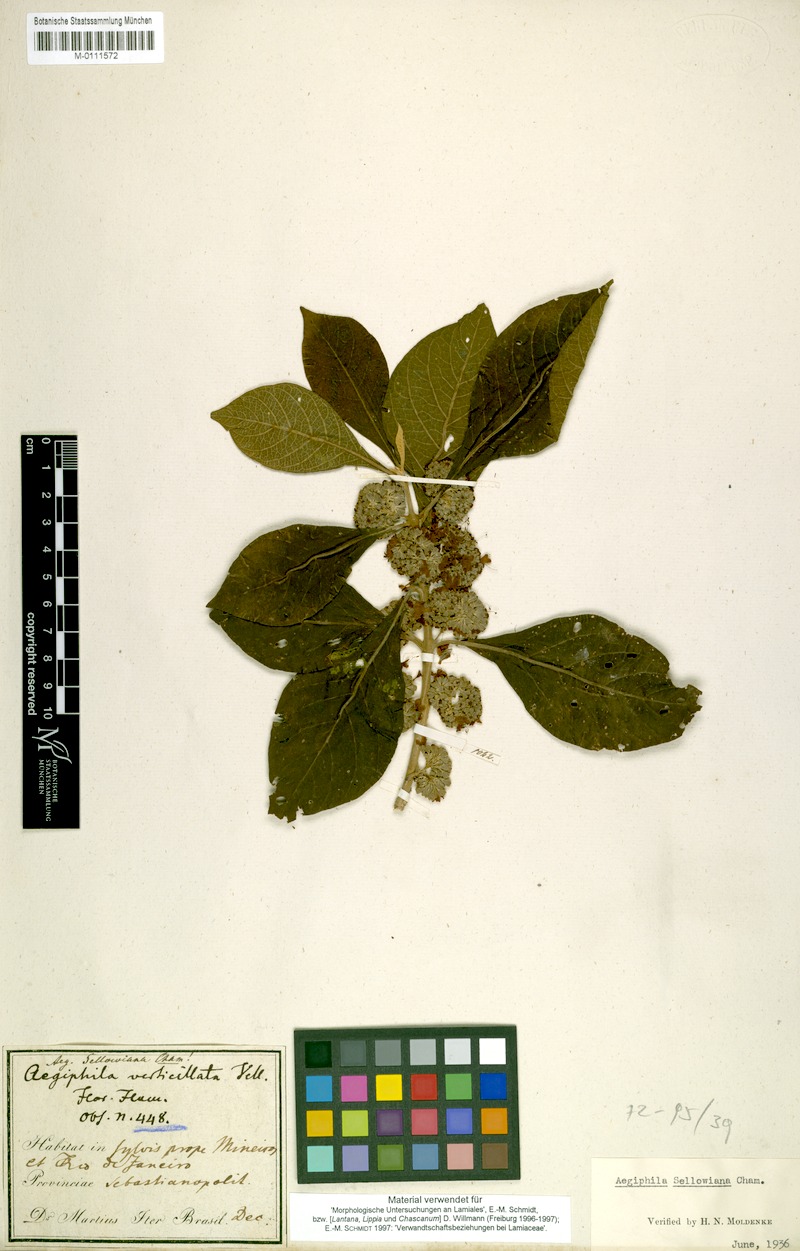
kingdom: Plantae
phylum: Tracheophyta
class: Magnoliopsida
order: Lamiales
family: Lamiaceae
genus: Aegiphila
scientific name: Aegiphila verticillata
